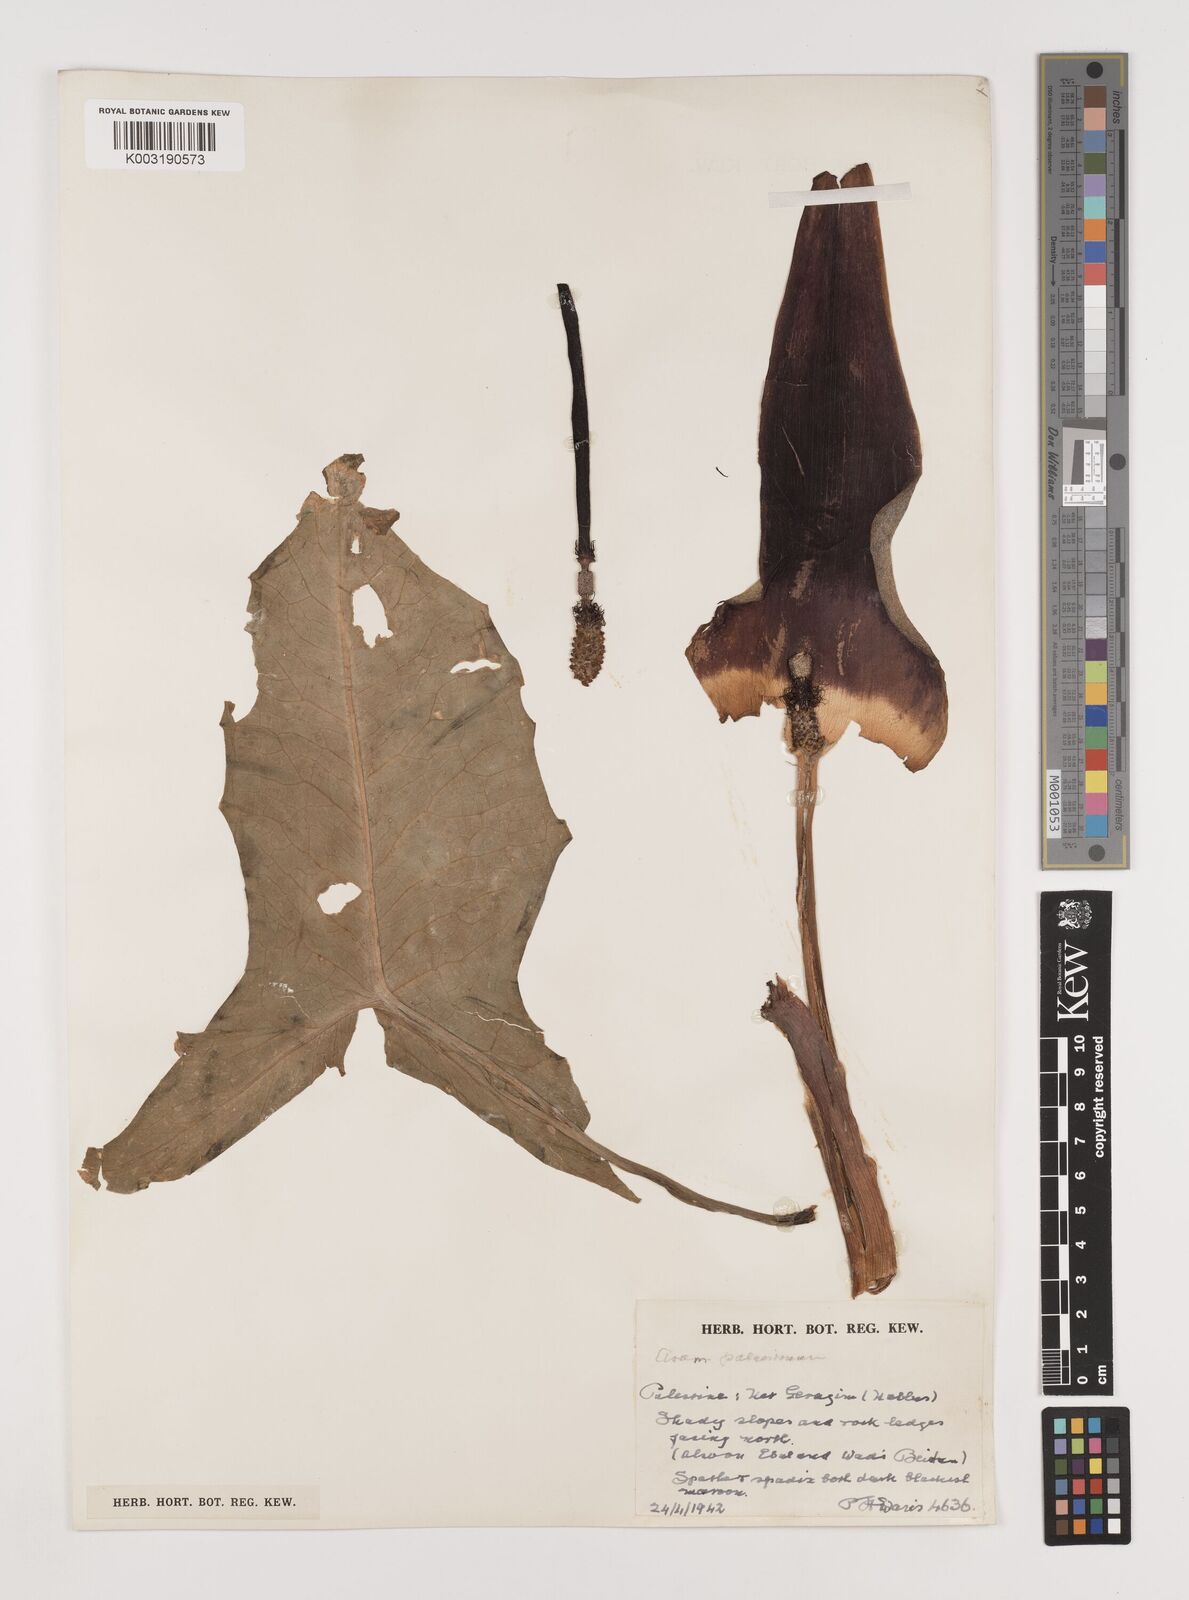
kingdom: Plantae
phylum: Tracheophyta
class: Liliopsida
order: Alismatales
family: Araceae
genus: Arum
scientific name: Arum palaestinum
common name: Solomon's lily
